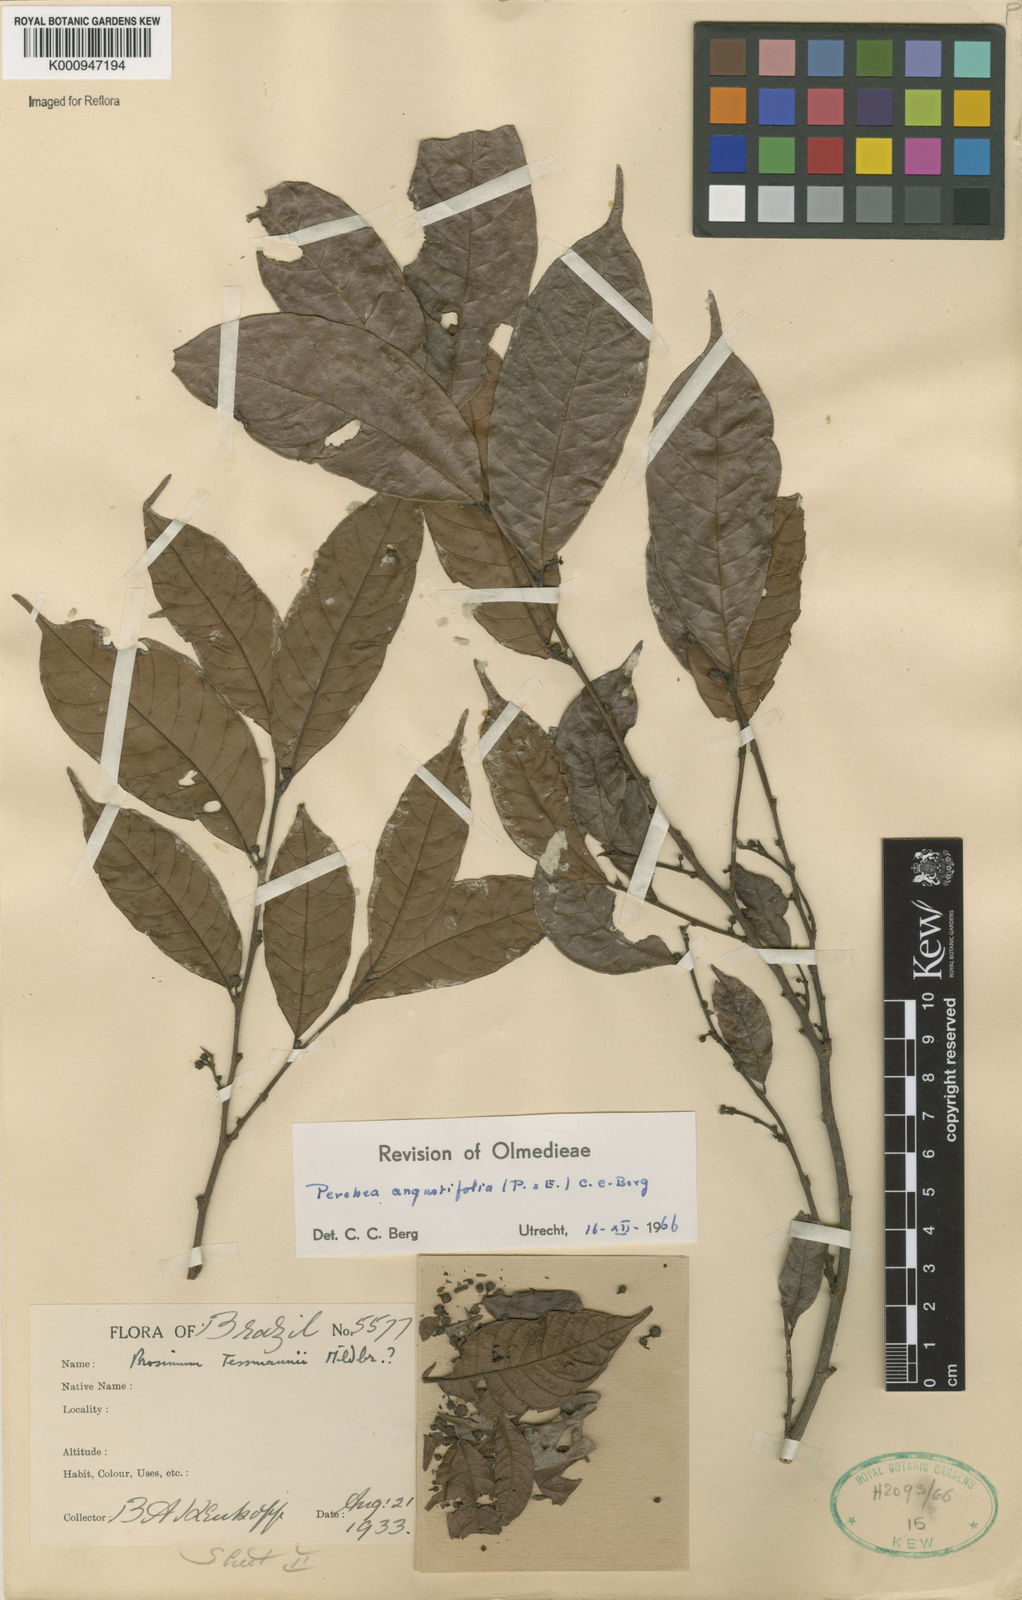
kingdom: Plantae
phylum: Tracheophyta
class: Magnoliopsida
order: Rosales
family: Moraceae
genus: Perebea
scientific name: Perebea angustifolia
